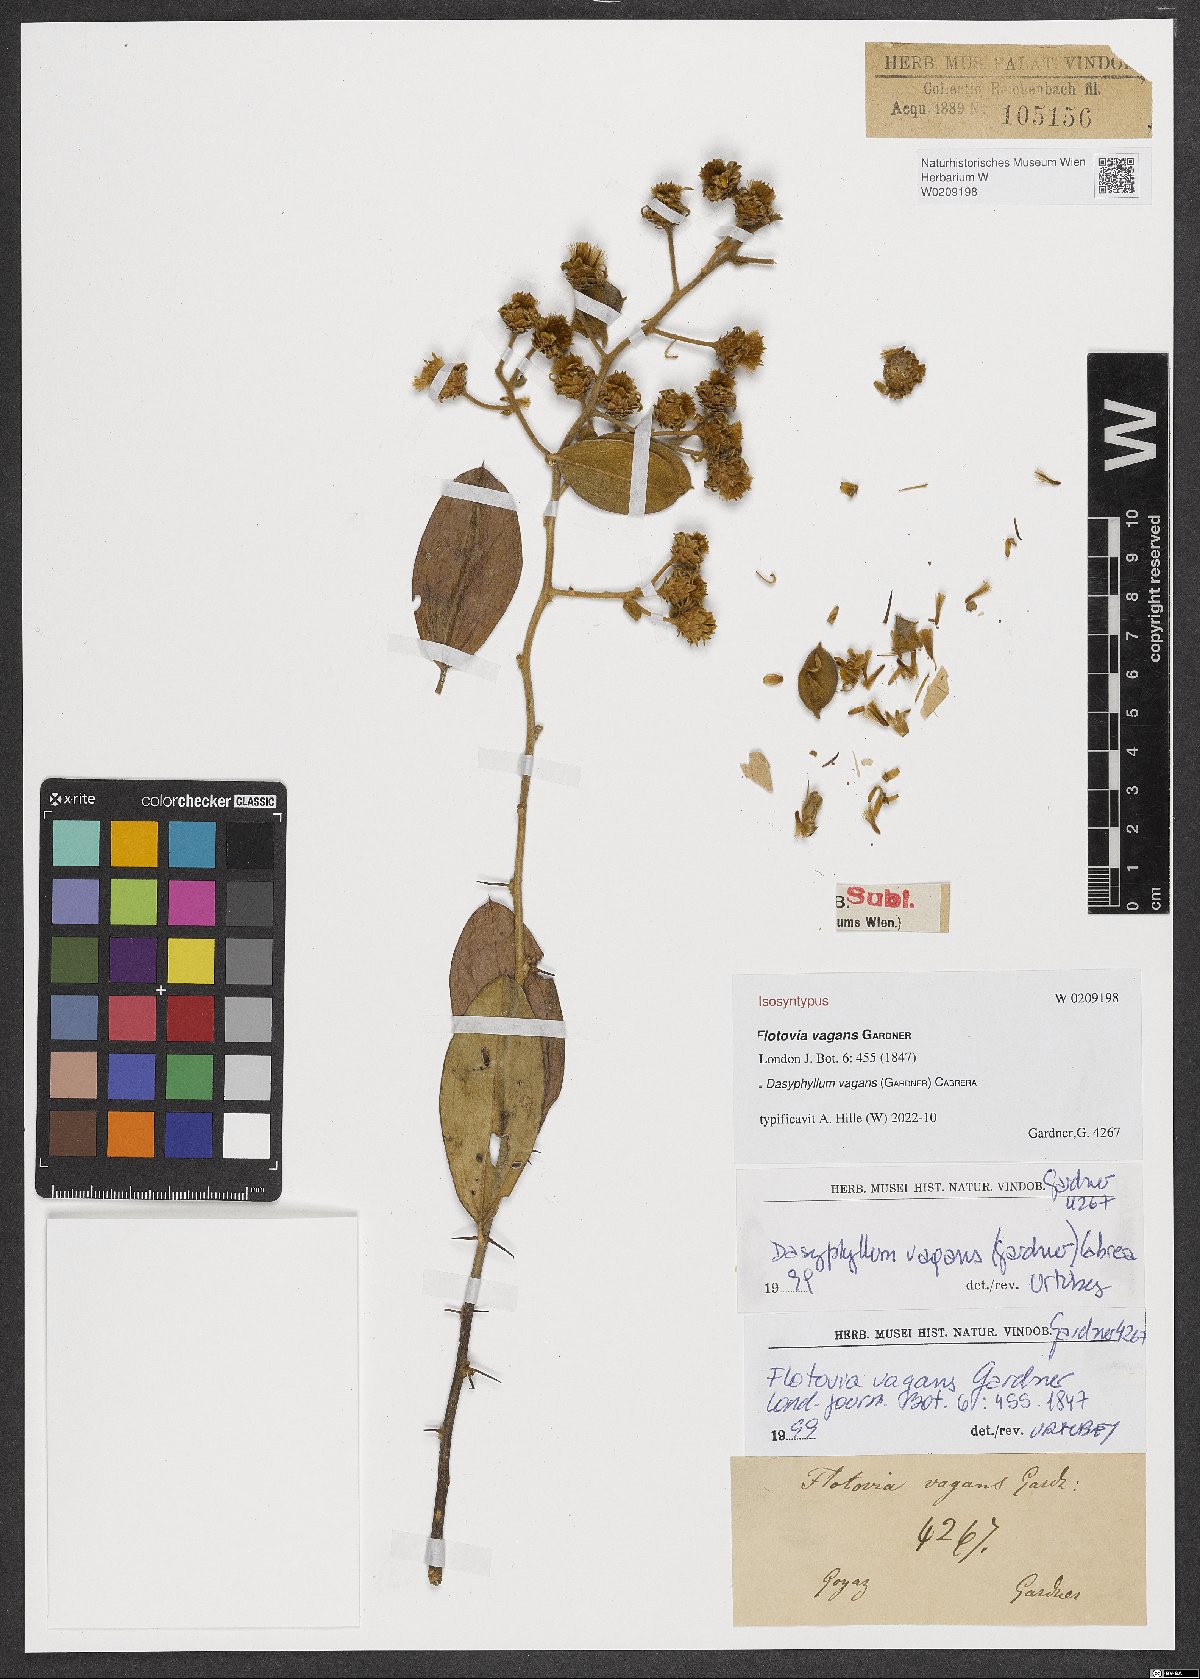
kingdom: Plantae
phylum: Tracheophyta
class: Magnoliopsida
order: Asterales
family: Asteraceae
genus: Dasyphyllum
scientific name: Dasyphyllum vagans
